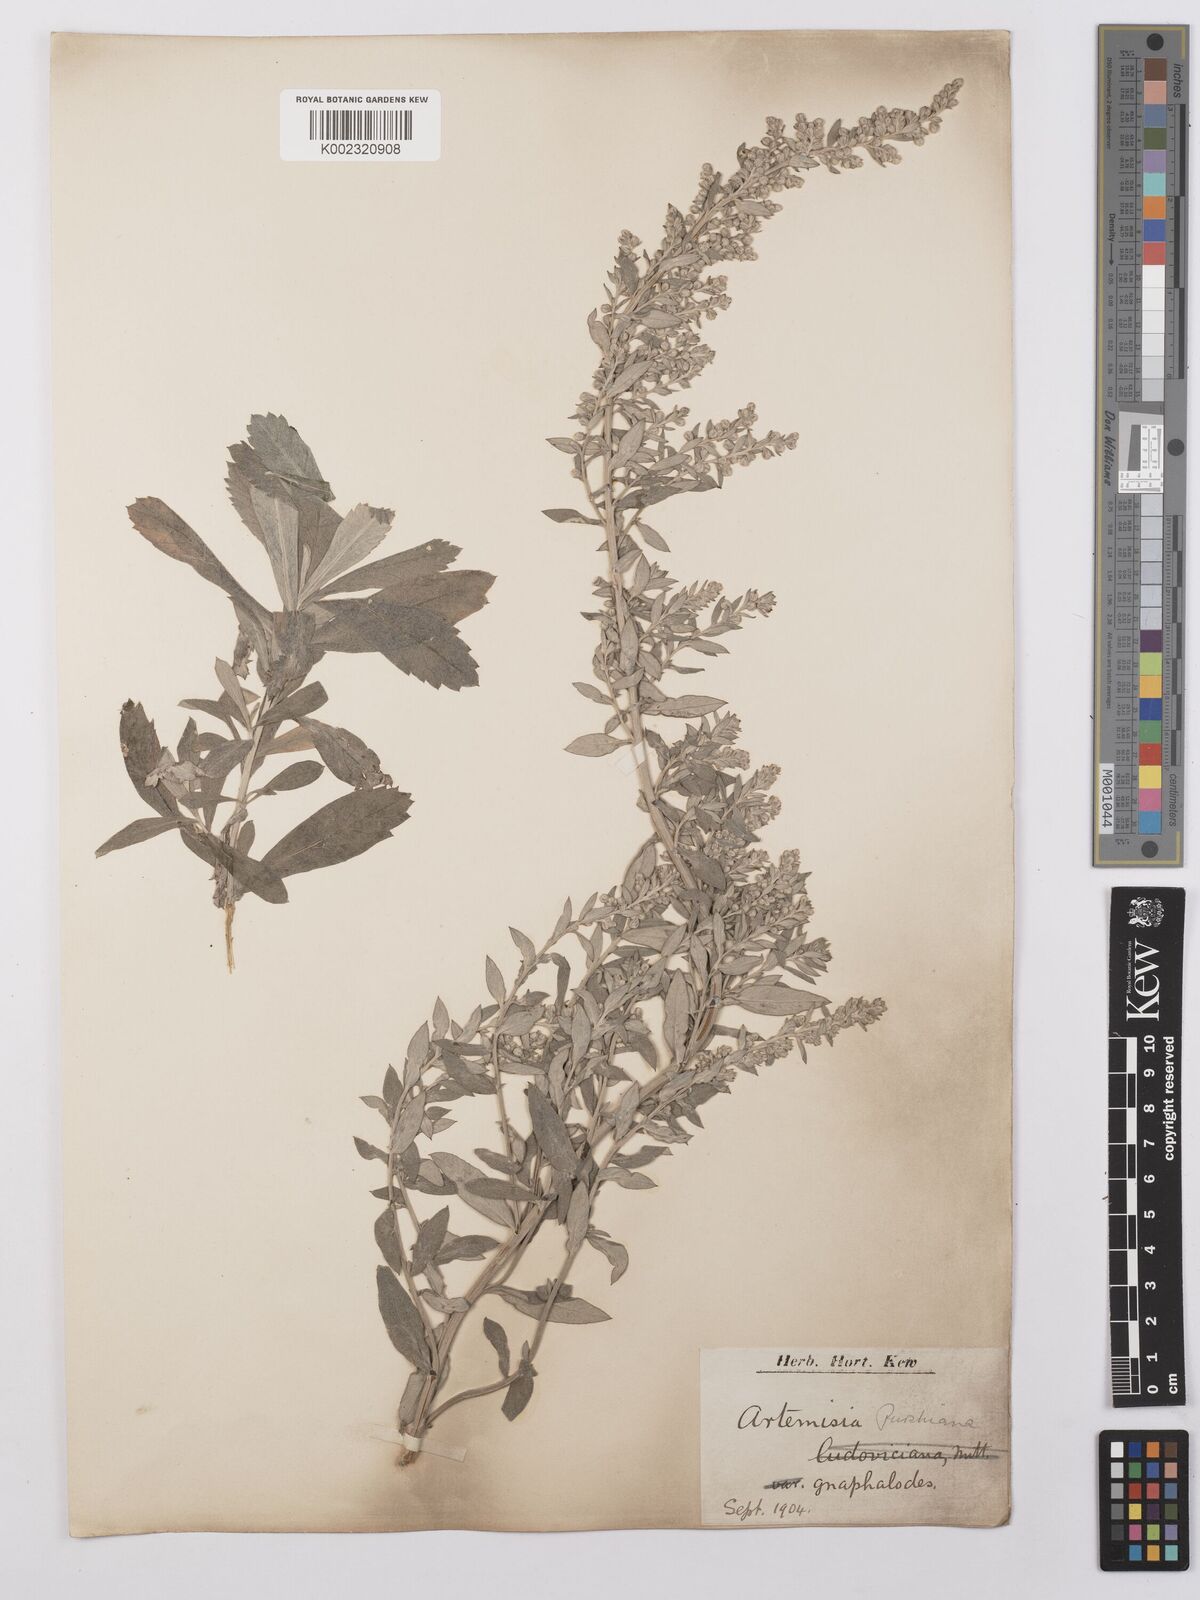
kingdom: Plantae
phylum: Tracheophyta
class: Magnoliopsida
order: Asterales
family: Asteraceae
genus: Artemisia
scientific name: Artemisia borealis
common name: Boreal sage
